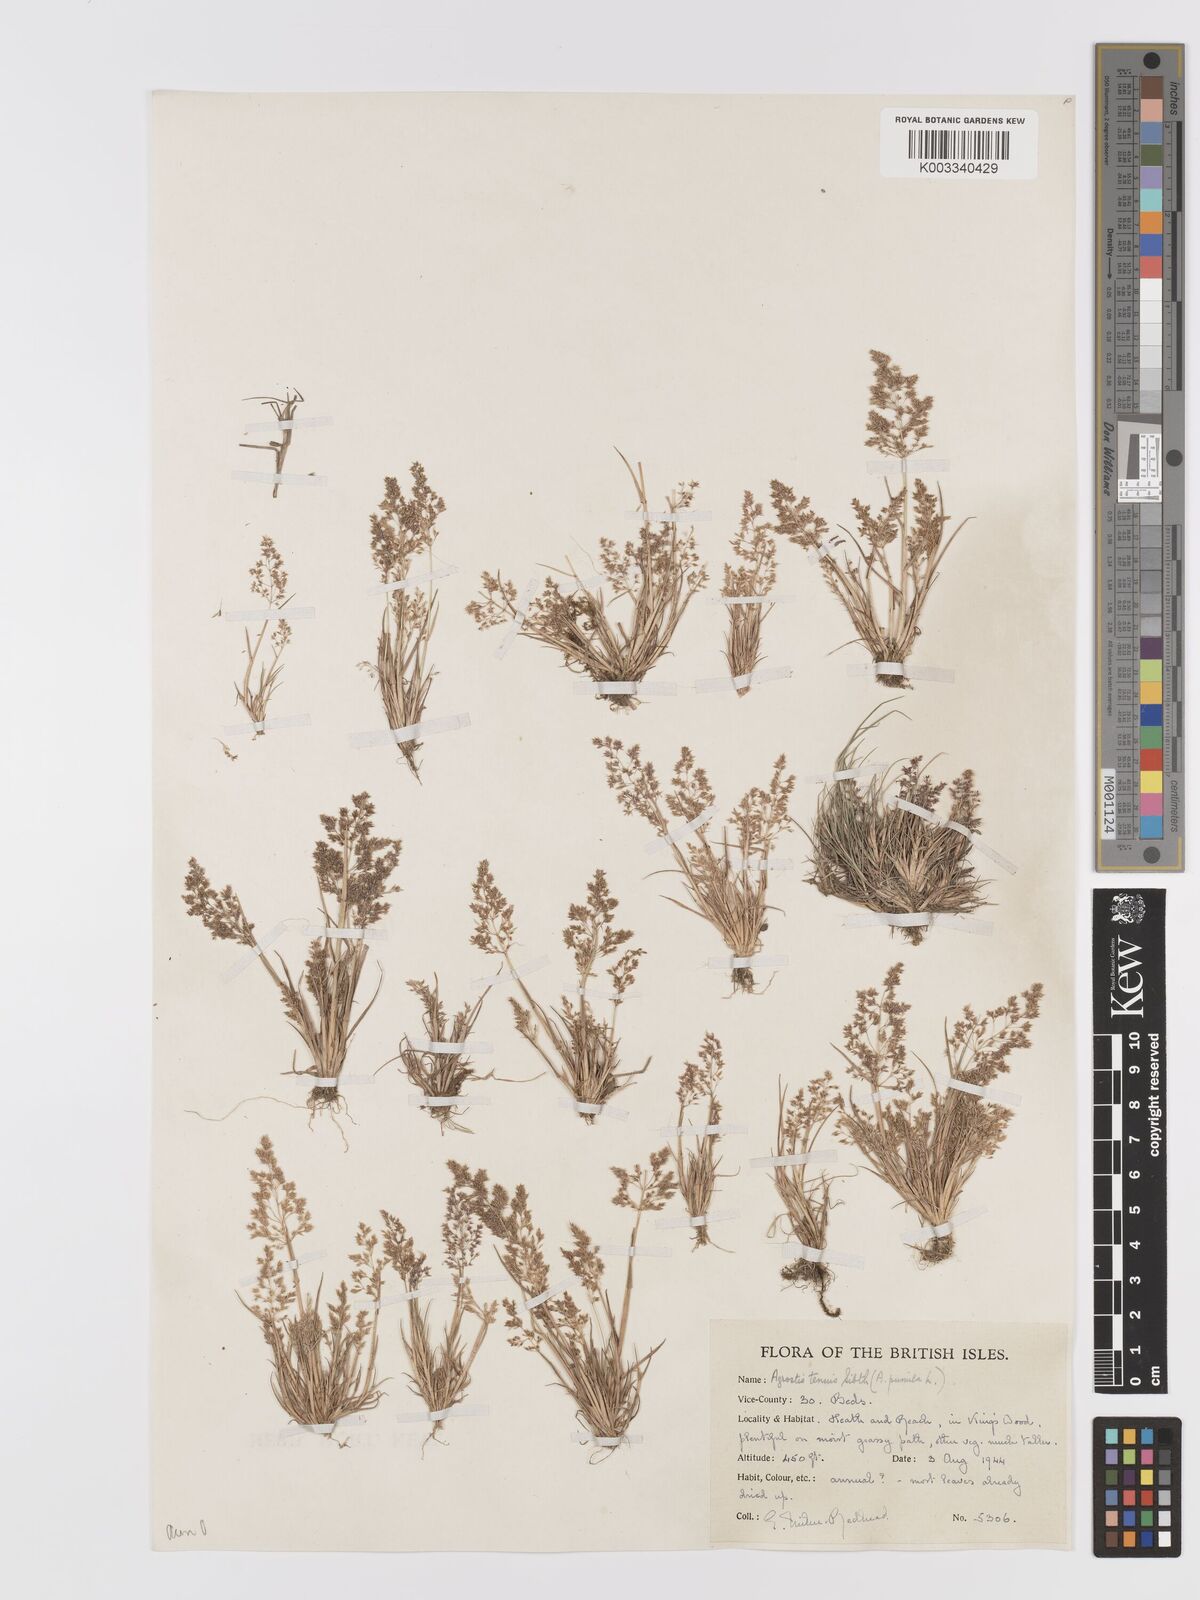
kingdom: Plantae
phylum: Tracheophyta
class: Liliopsida
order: Poales
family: Poaceae
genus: Agrostis
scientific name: Agrostis capillaris
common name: Colonial bentgrass
